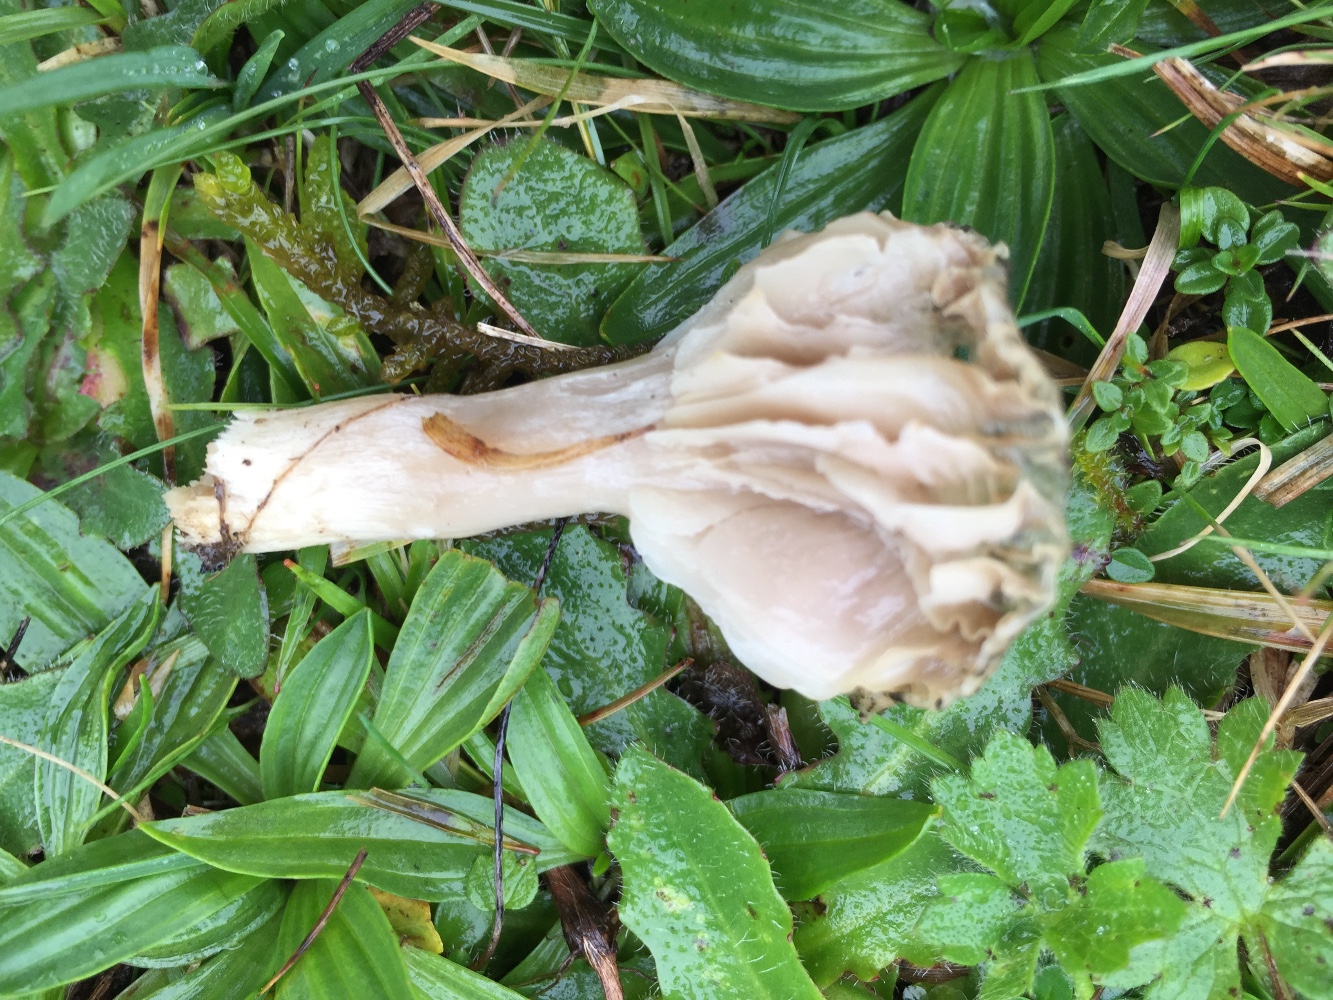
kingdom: Fungi
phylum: Basidiomycota
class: Agaricomycetes
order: Agaricales
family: Hygrophoraceae
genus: Cuphophyllus
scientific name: Cuphophyllus flavipes
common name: gulfodet vokshat
